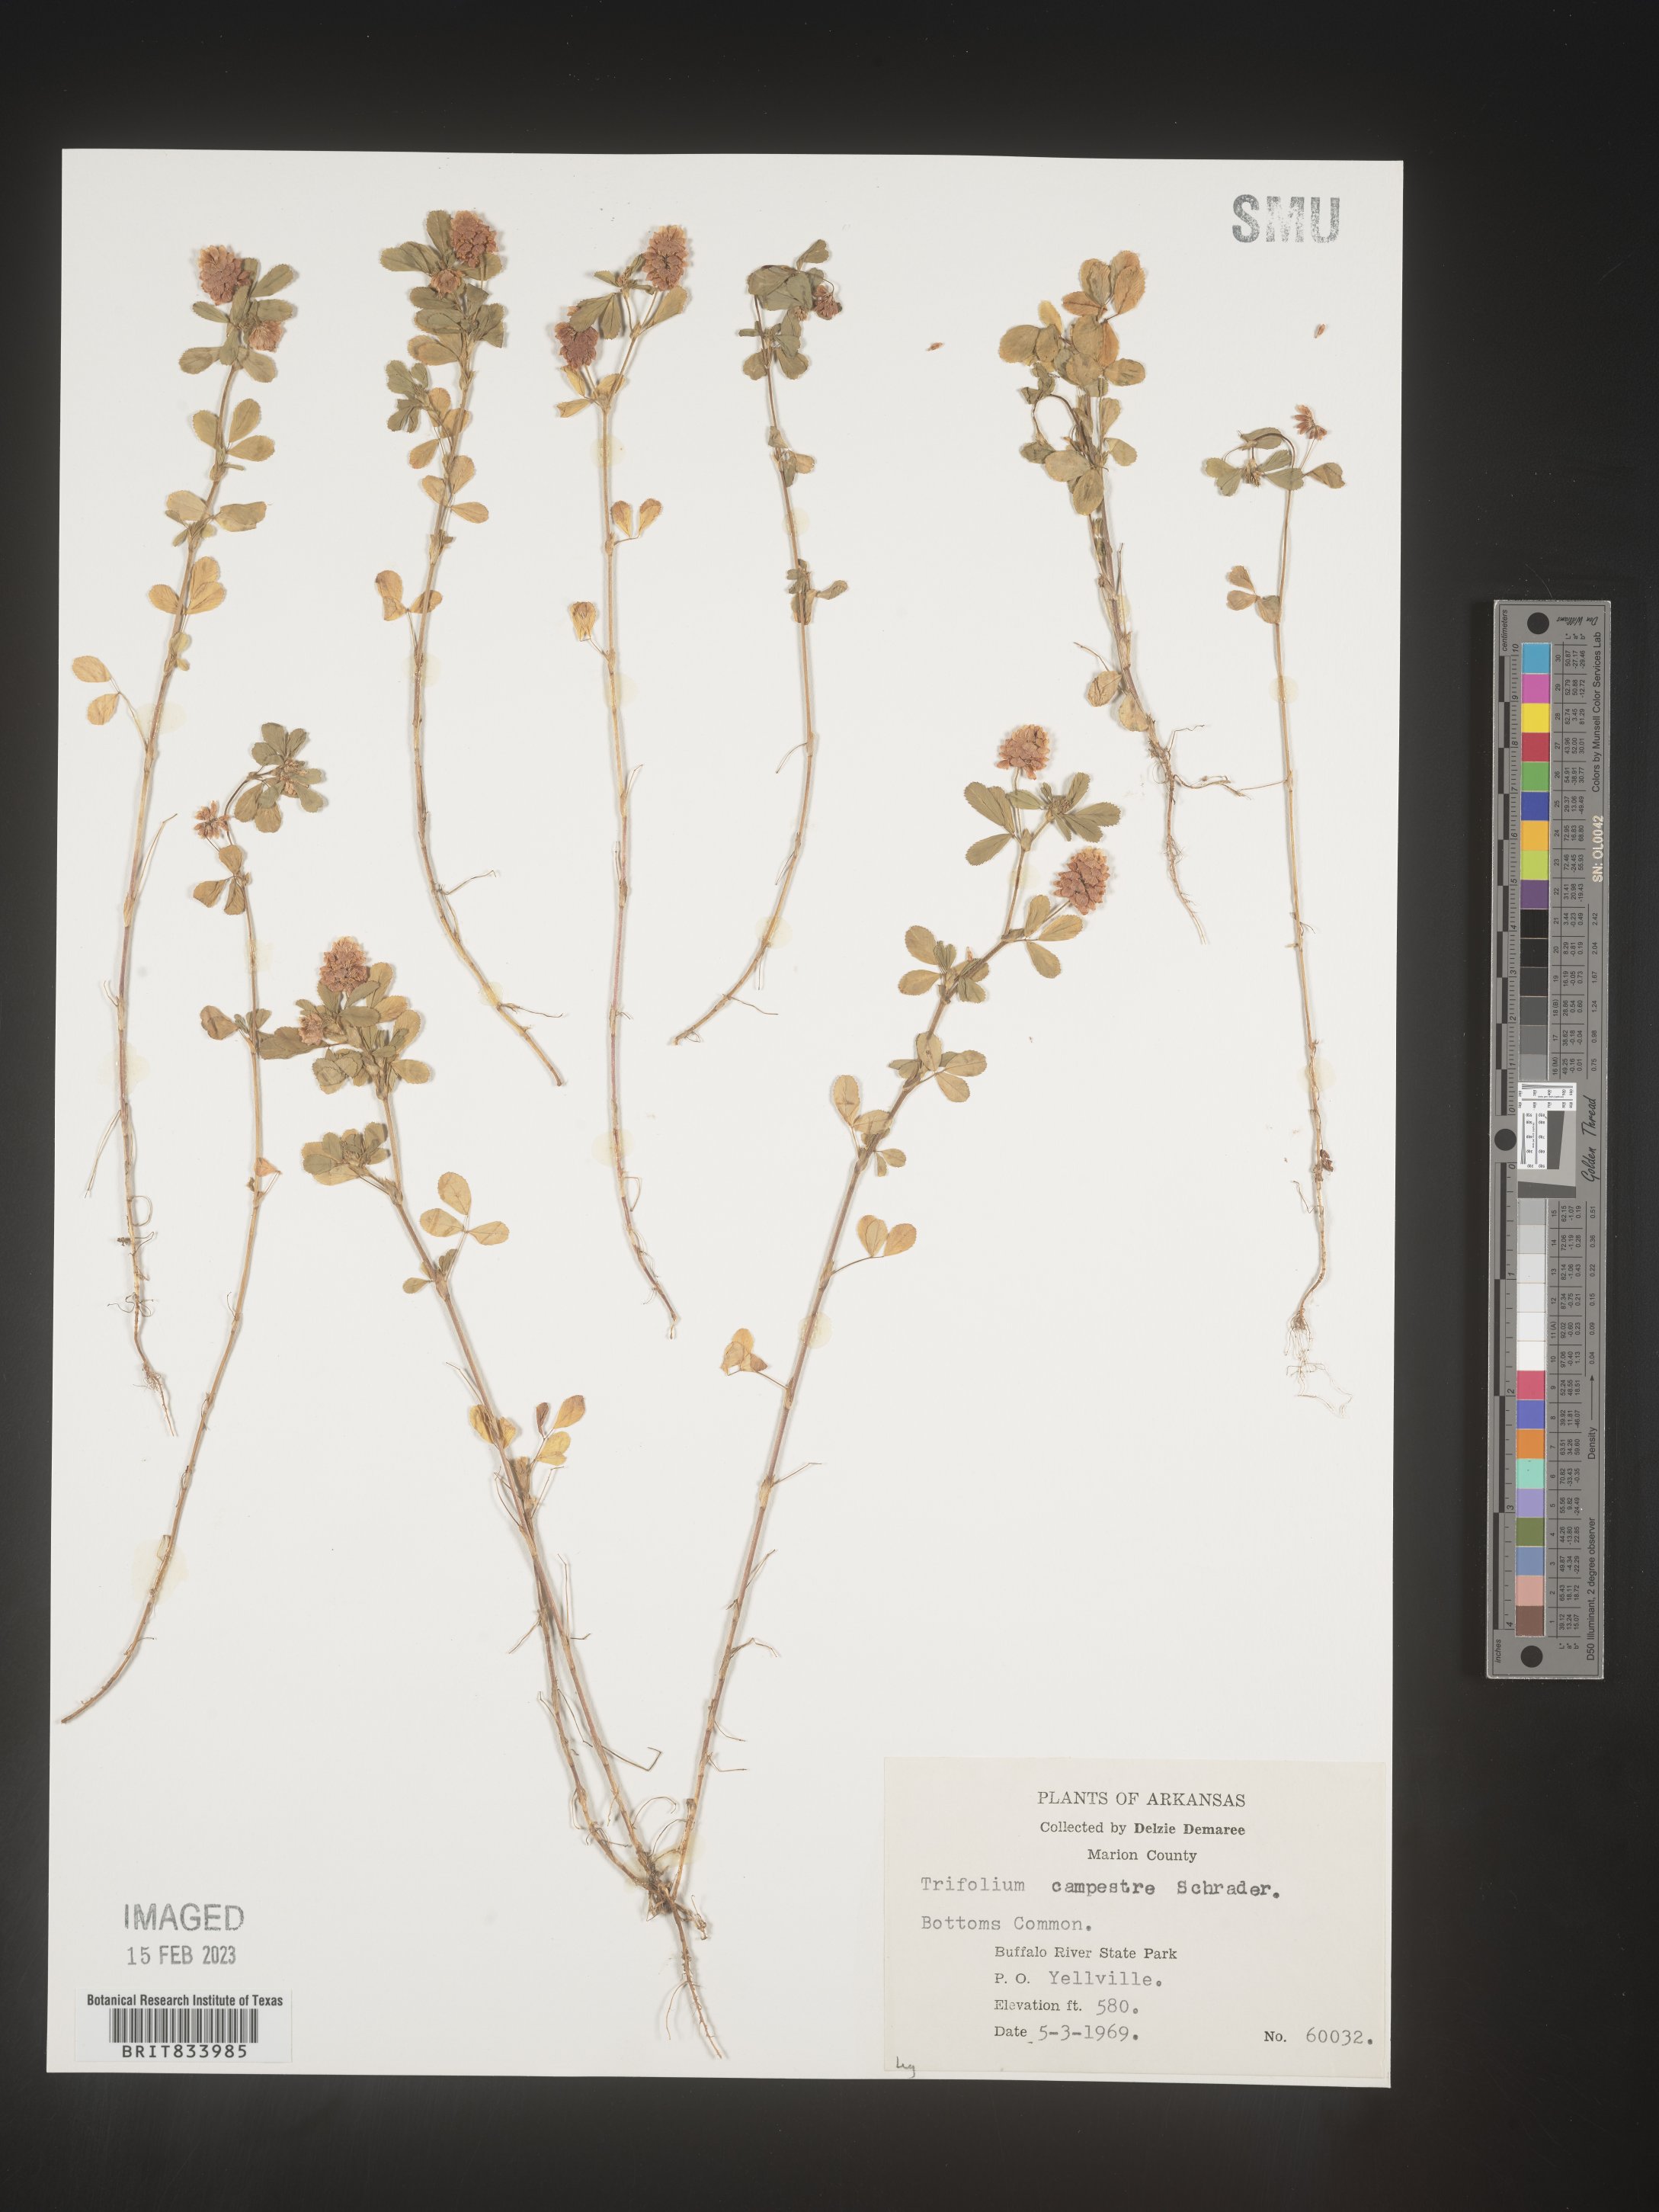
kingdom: Plantae
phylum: Tracheophyta
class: Magnoliopsida
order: Fabales
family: Fabaceae
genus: Trifolium
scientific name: Trifolium campestre
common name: Field clover
